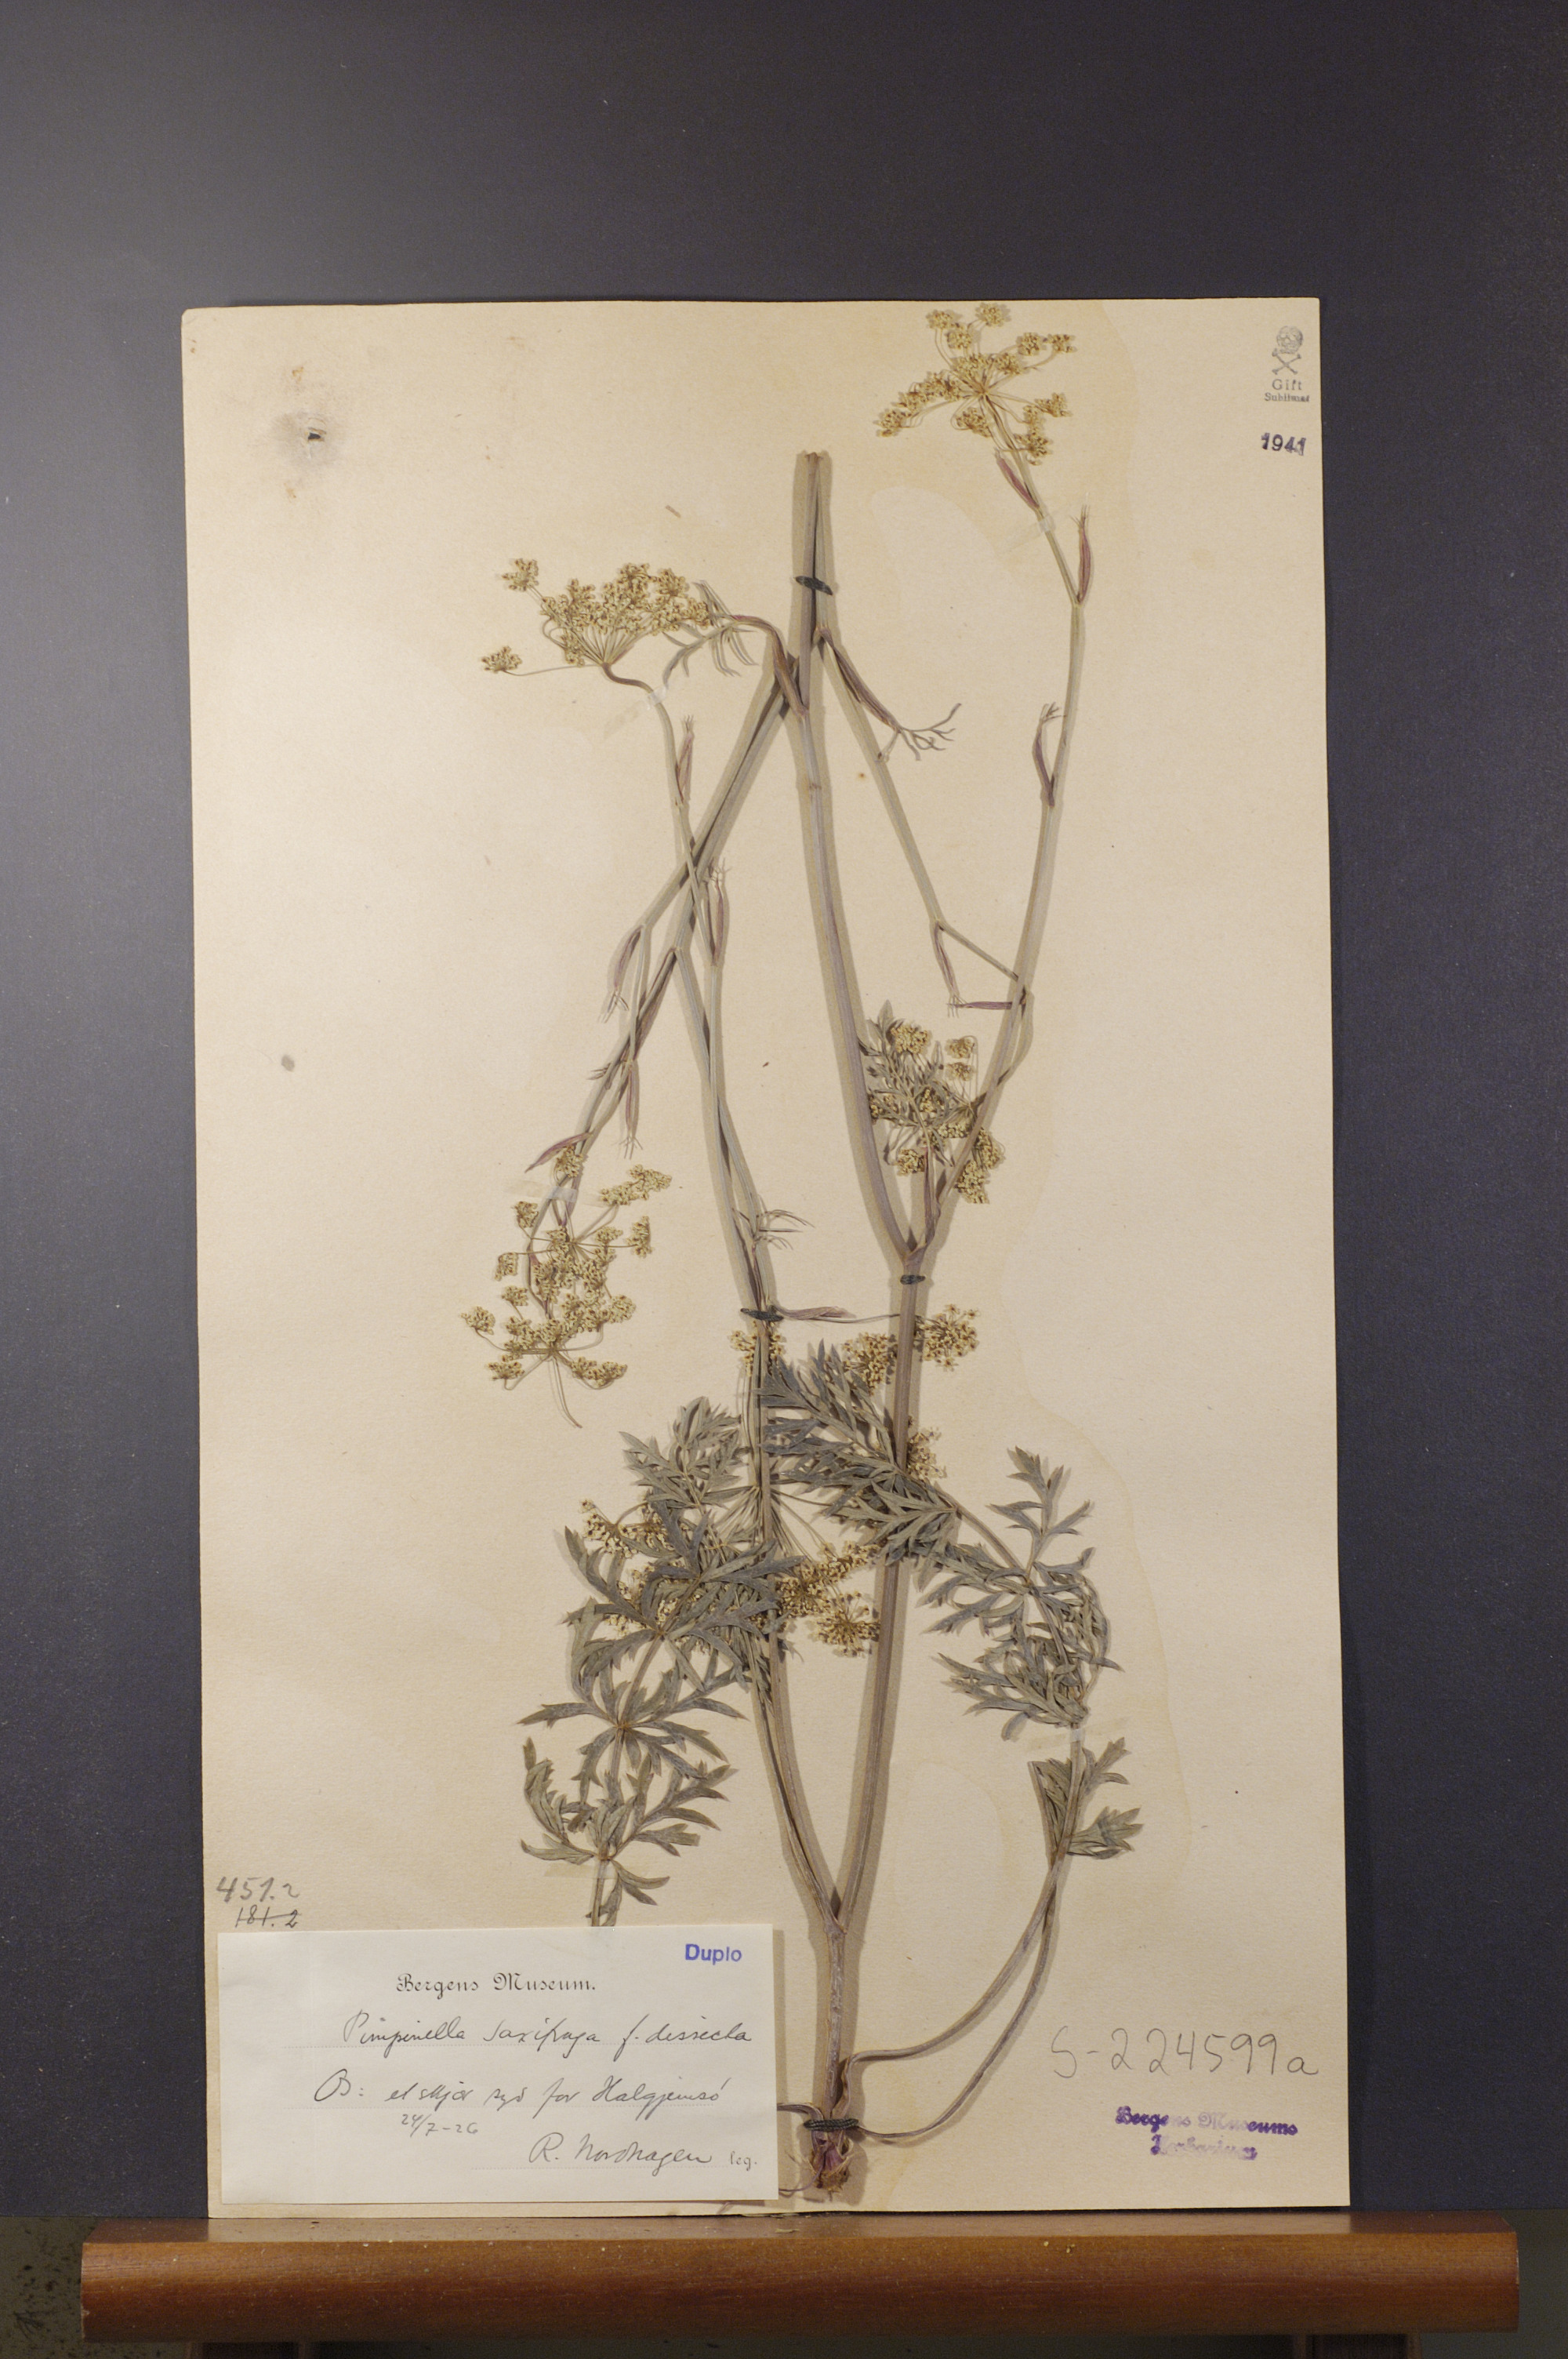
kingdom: Plantae
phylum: Tracheophyta
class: Magnoliopsida
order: Apiales
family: Apiaceae
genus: Pimpinella
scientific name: Pimpinella saxifraga
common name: Burnet-saxifrage
